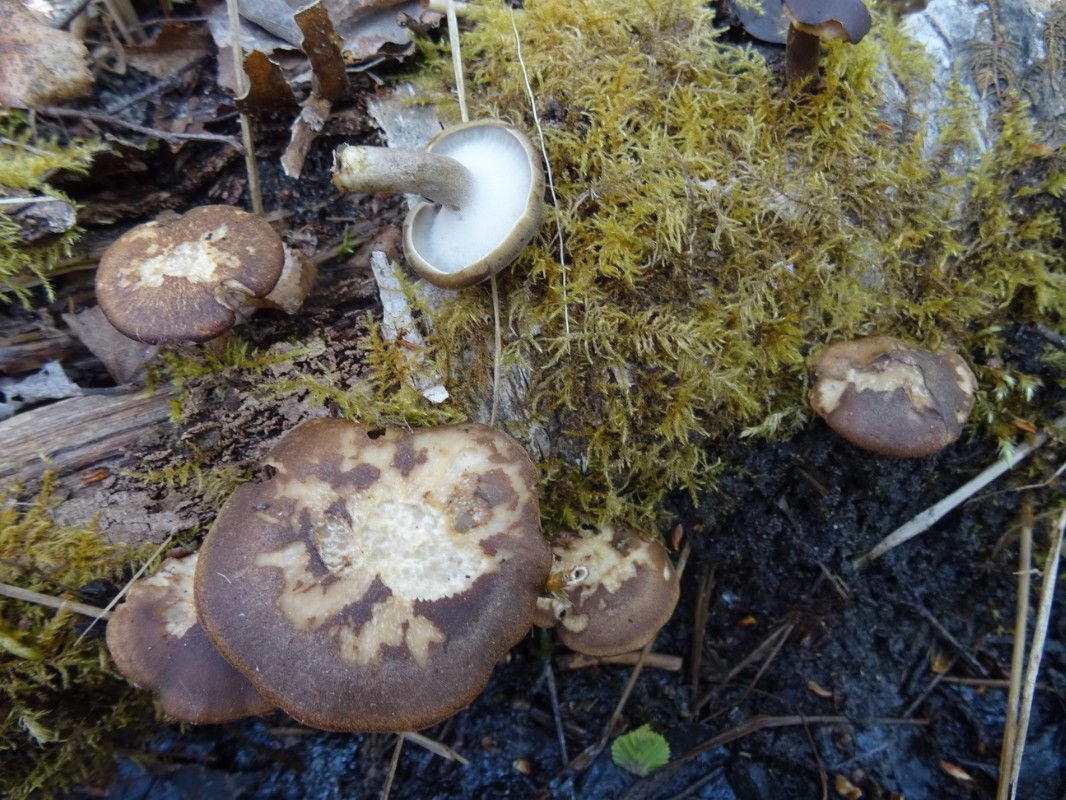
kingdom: Fungi
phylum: Basidiomycota
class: Agaricomycetes
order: Polyporales
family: Polyporaceae
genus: Lentinus
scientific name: Lentinus substrictus
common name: forårs-stilkporesvamp
